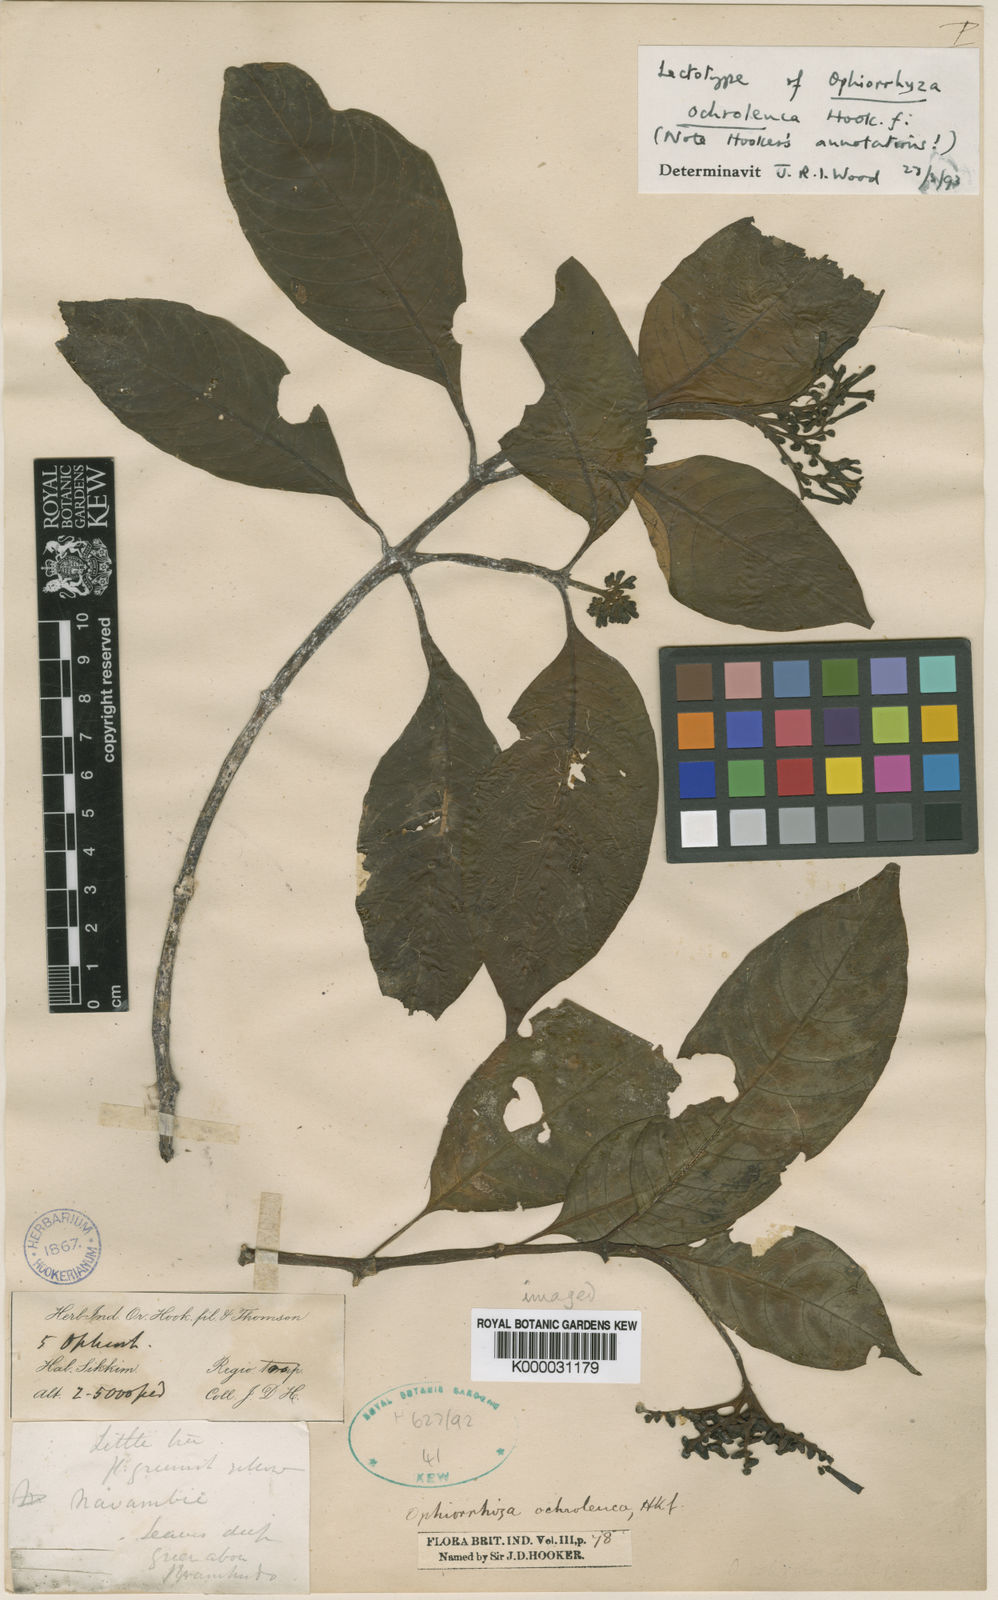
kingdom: Plantae
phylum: Tracheophyta
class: Magnoliopsida
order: Gentianales
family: Rubiaceae
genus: Ophiorrhiza
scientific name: Ophiorrhiza ochroleuca
